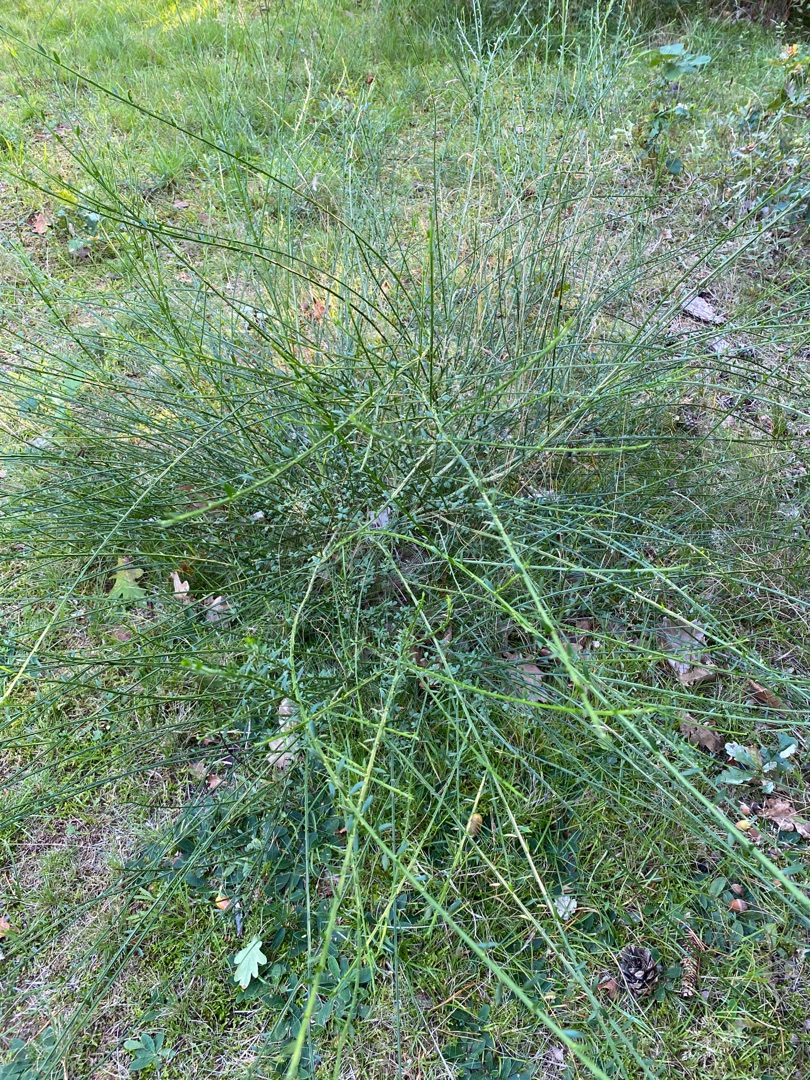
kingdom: Plantae
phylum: Tracheophyta
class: Magnoliopsida
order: Fabales
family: Fabaceae
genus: Cytisus
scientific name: Cytisus scoparius
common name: Almindelig gyvel
